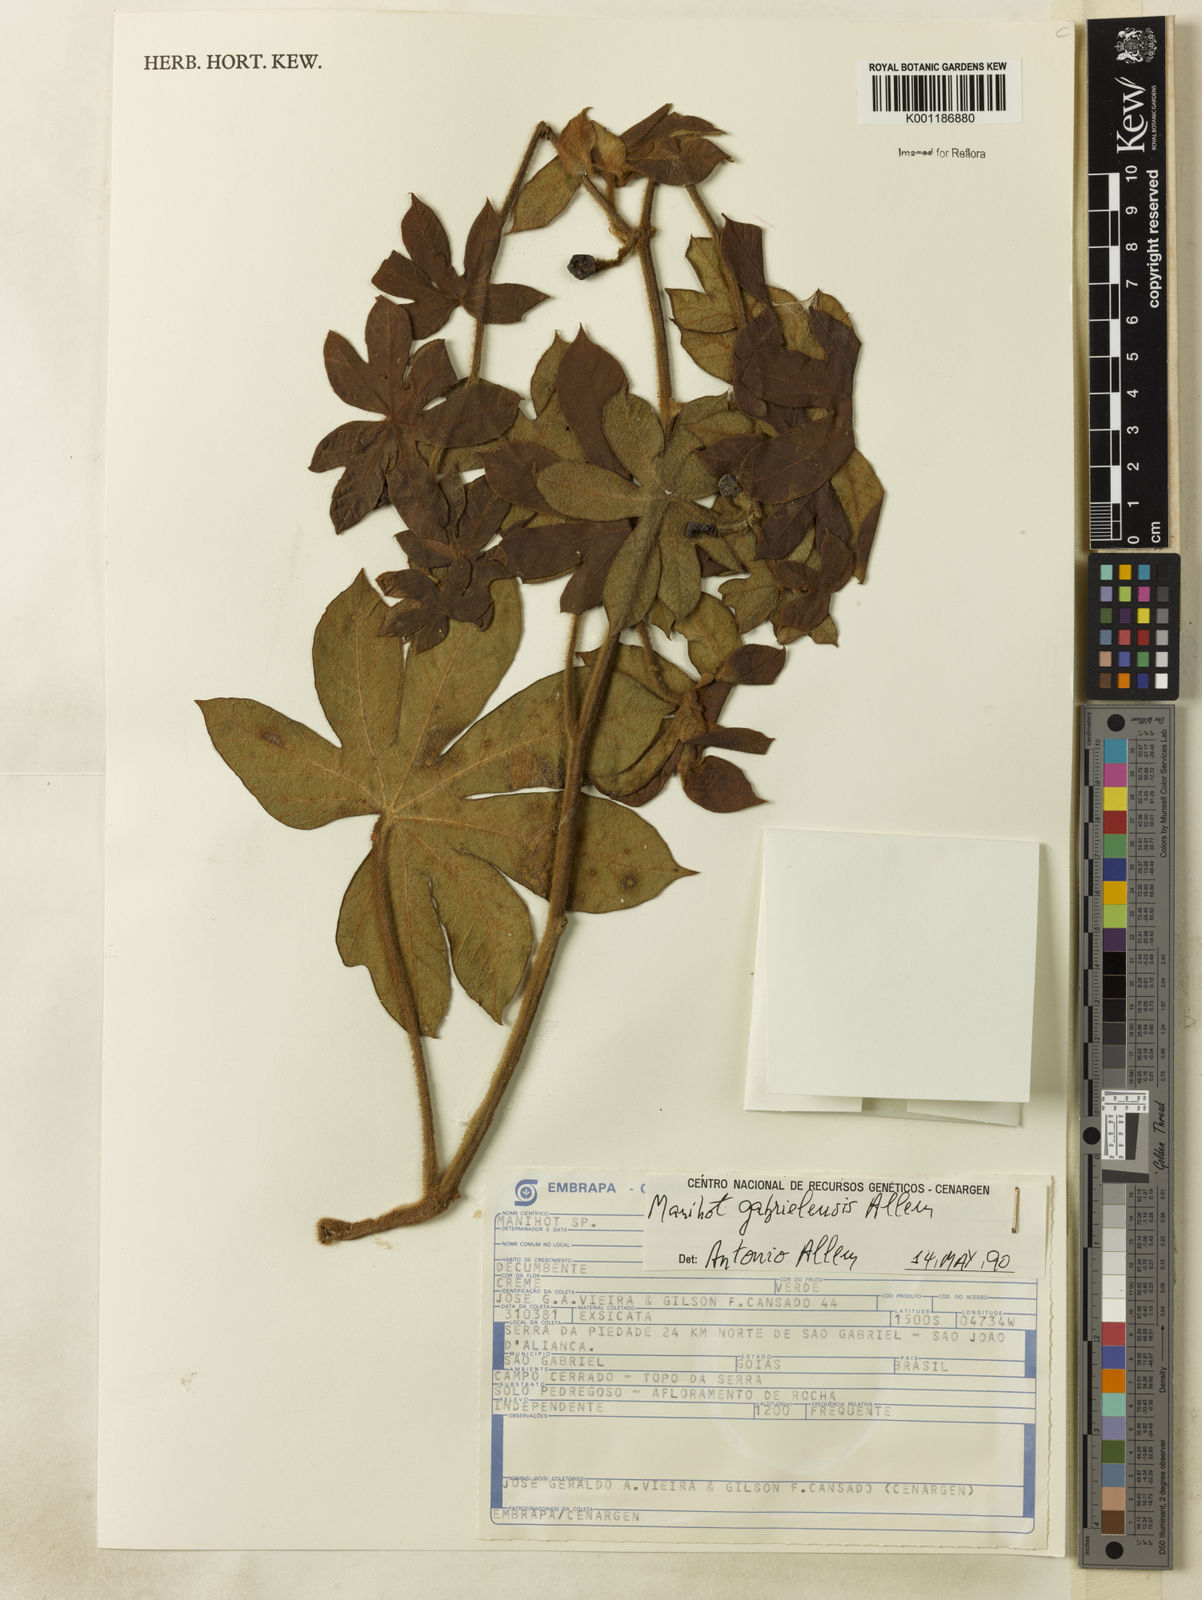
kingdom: Plantae
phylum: Tracheophyta
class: Magnoliopsida
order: Malpighiales
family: Euphorbiaceae
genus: Manihot
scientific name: Manihot gabrielensis
